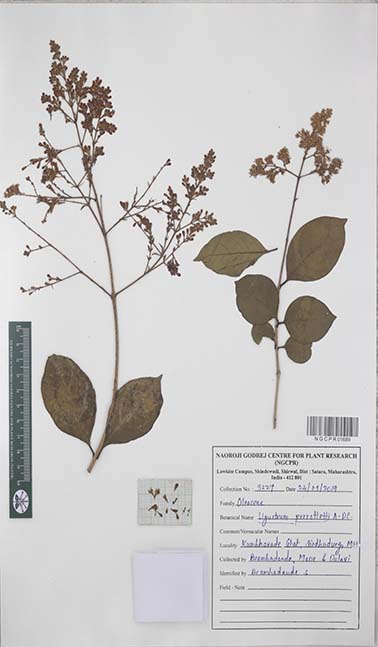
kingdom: Plantae
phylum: Tracheophyta
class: Magnoliopsida
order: Fabales
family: Fabaceae
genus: Albizia
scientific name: Albizia
